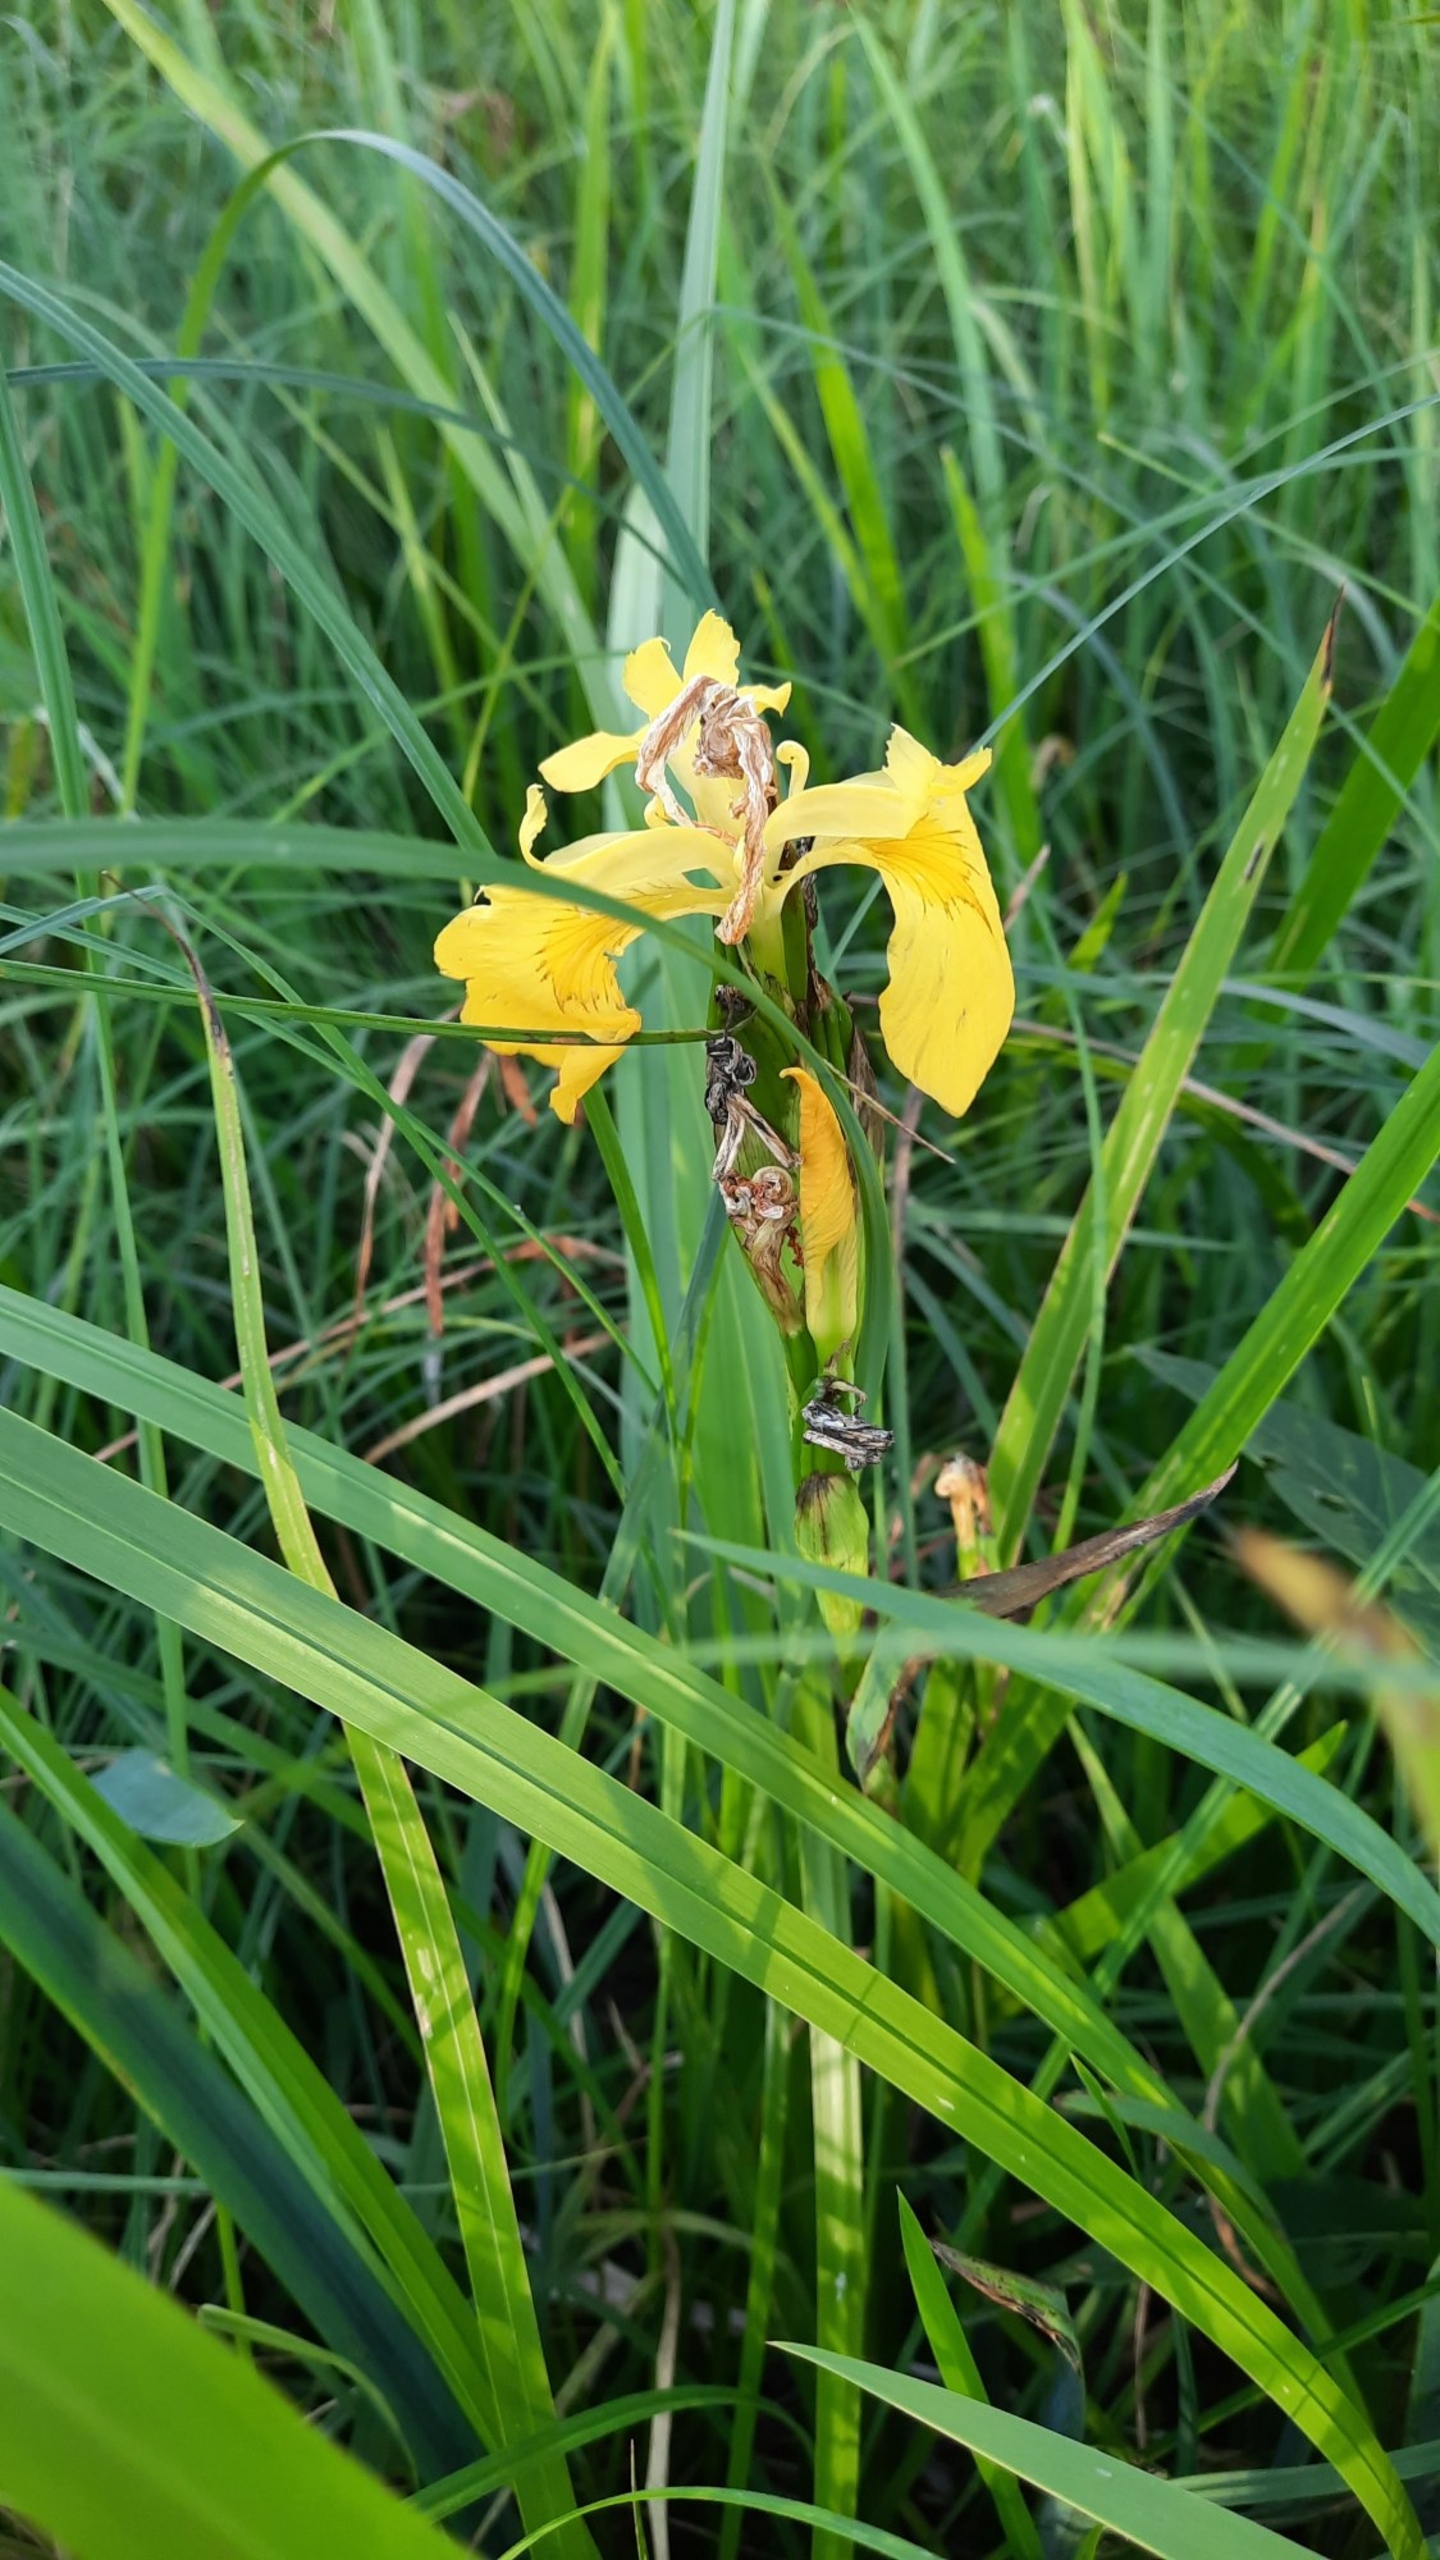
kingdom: Plantae
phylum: Tracheophyta
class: Liliopsida
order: Asparagales
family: Iridaceae
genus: Iris
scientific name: Iris pseudacorus
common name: Gul iris
